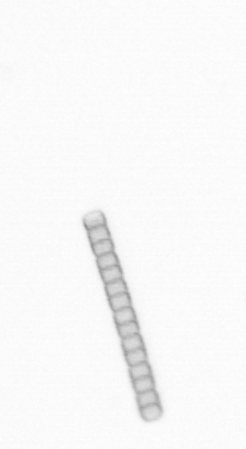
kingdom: Chromista
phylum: Ochrophyta
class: Bacillariophyceae
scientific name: Bacillariophyceae
